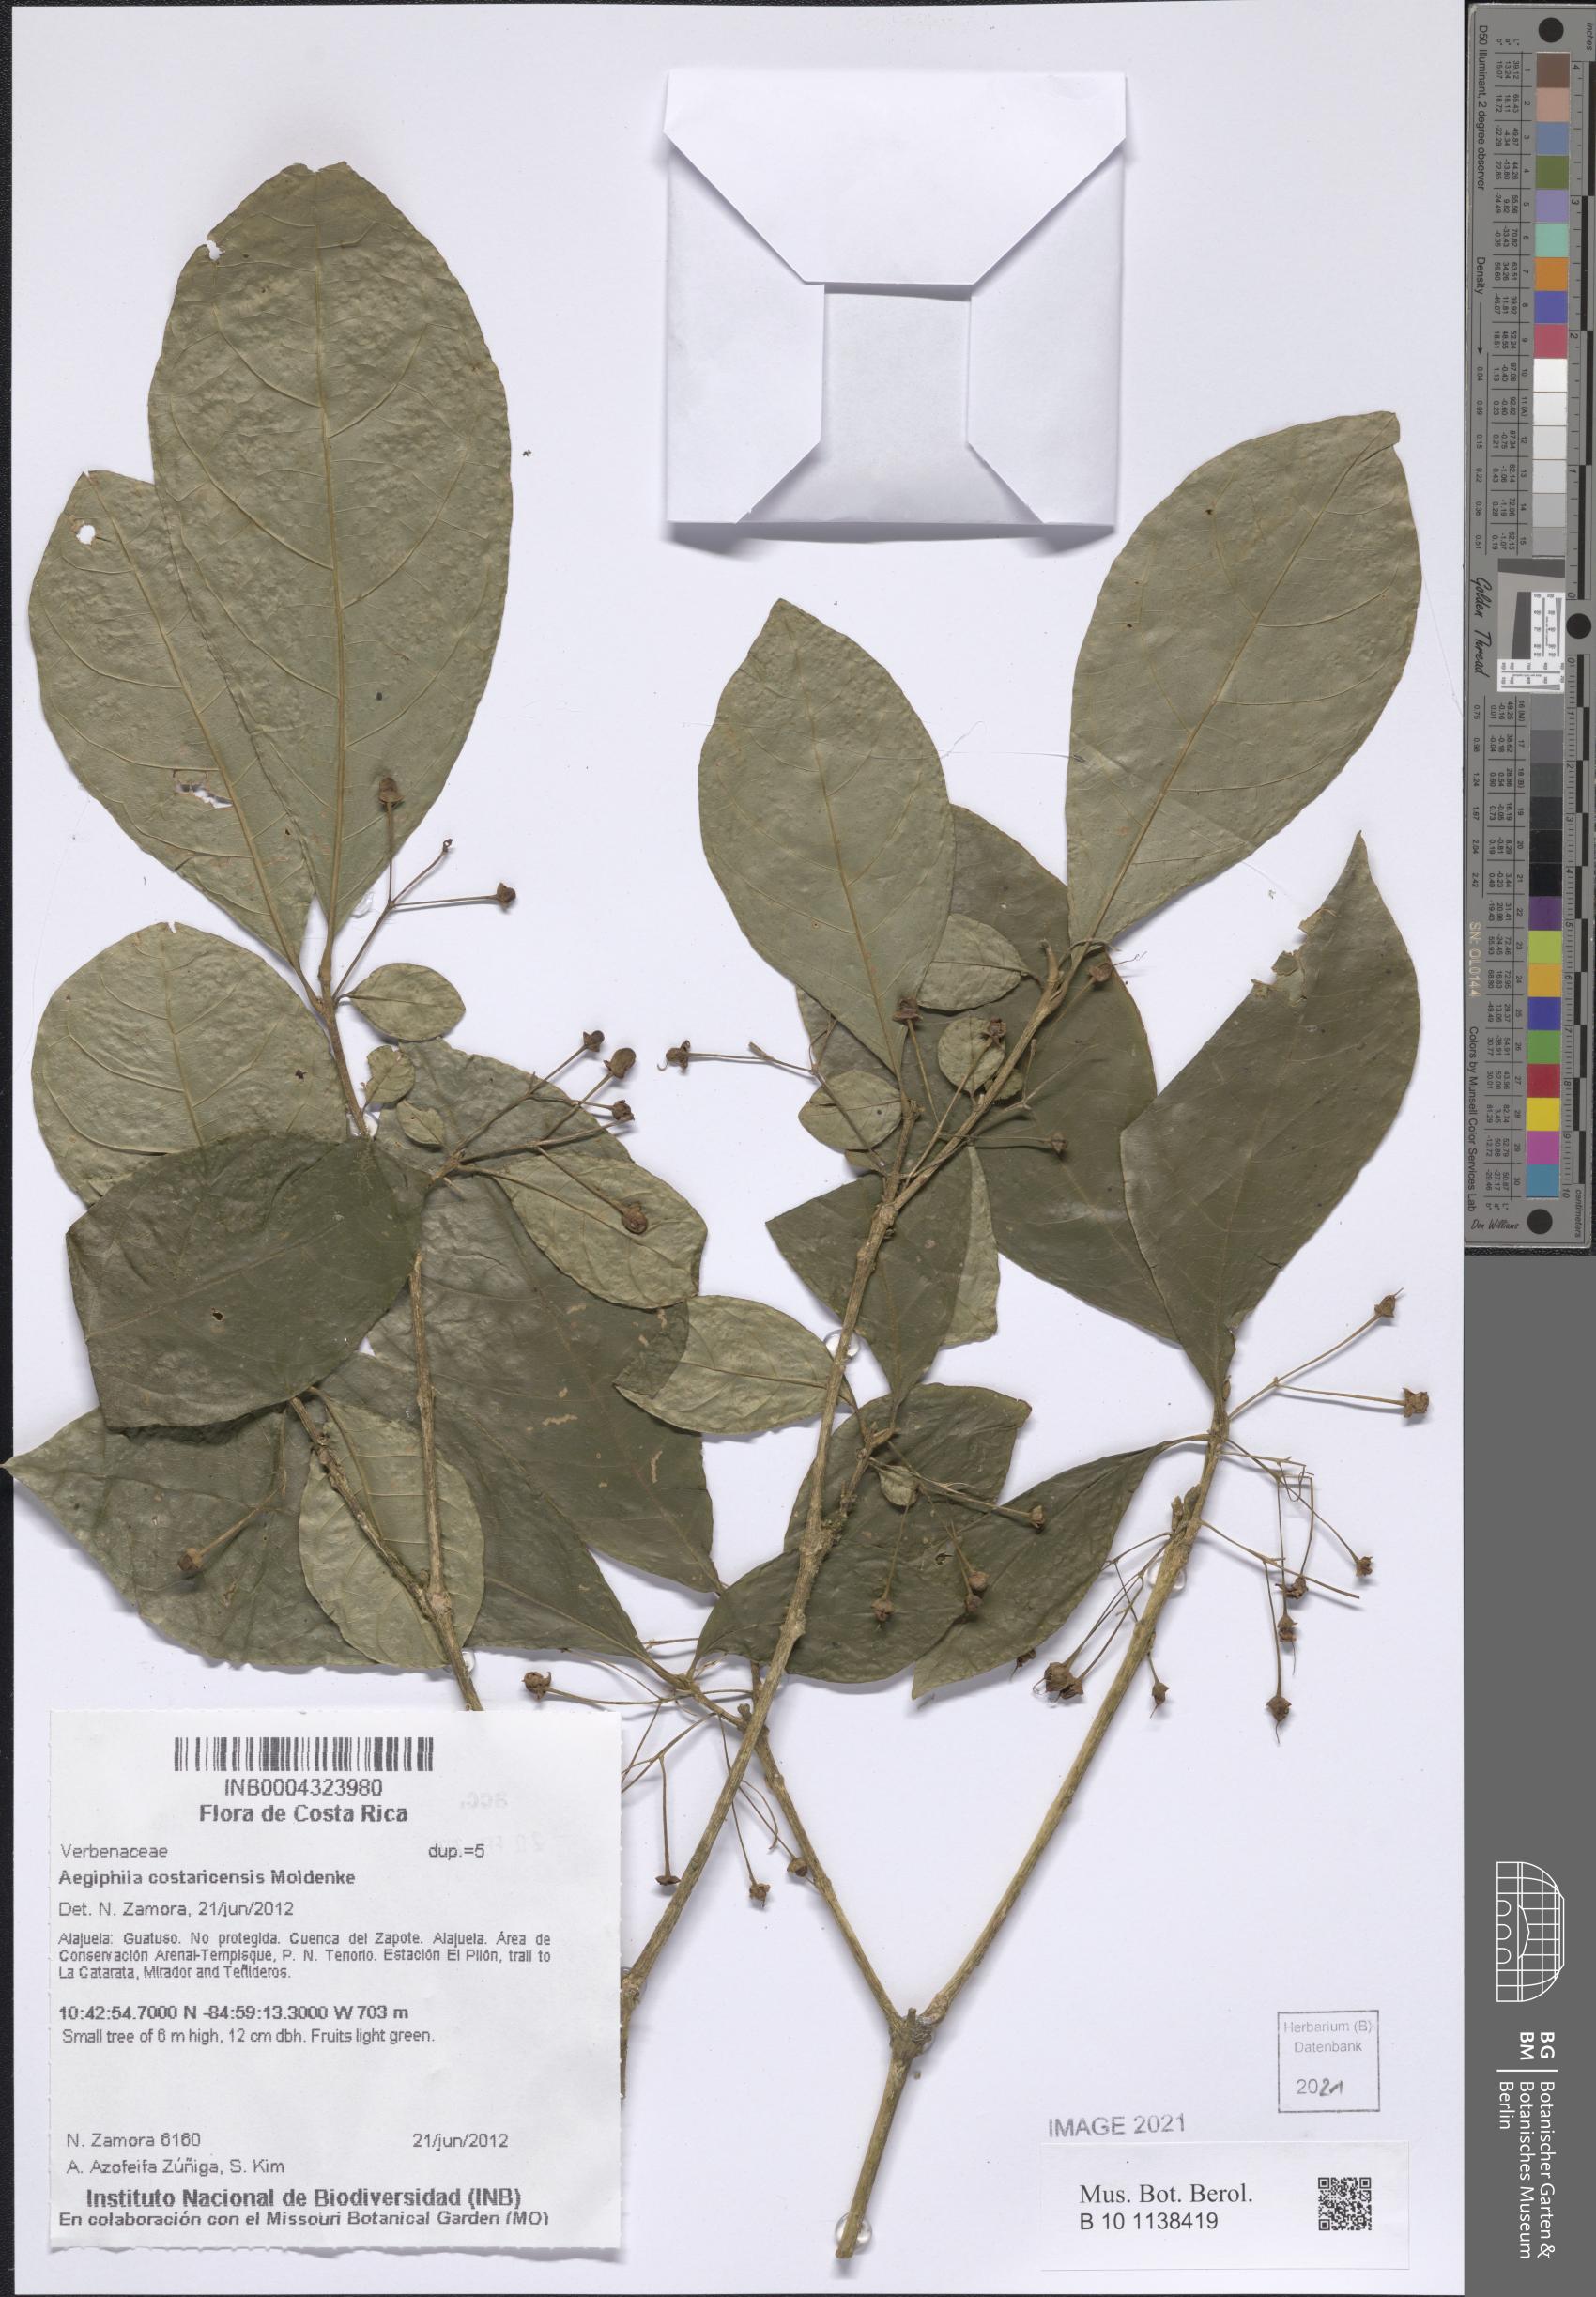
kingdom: Plantae
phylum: Tracheophyta
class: Magnoliopsida
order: Lamiales
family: Lamiaceae
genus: Aegiphila
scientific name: Aegiphila costaricensis
